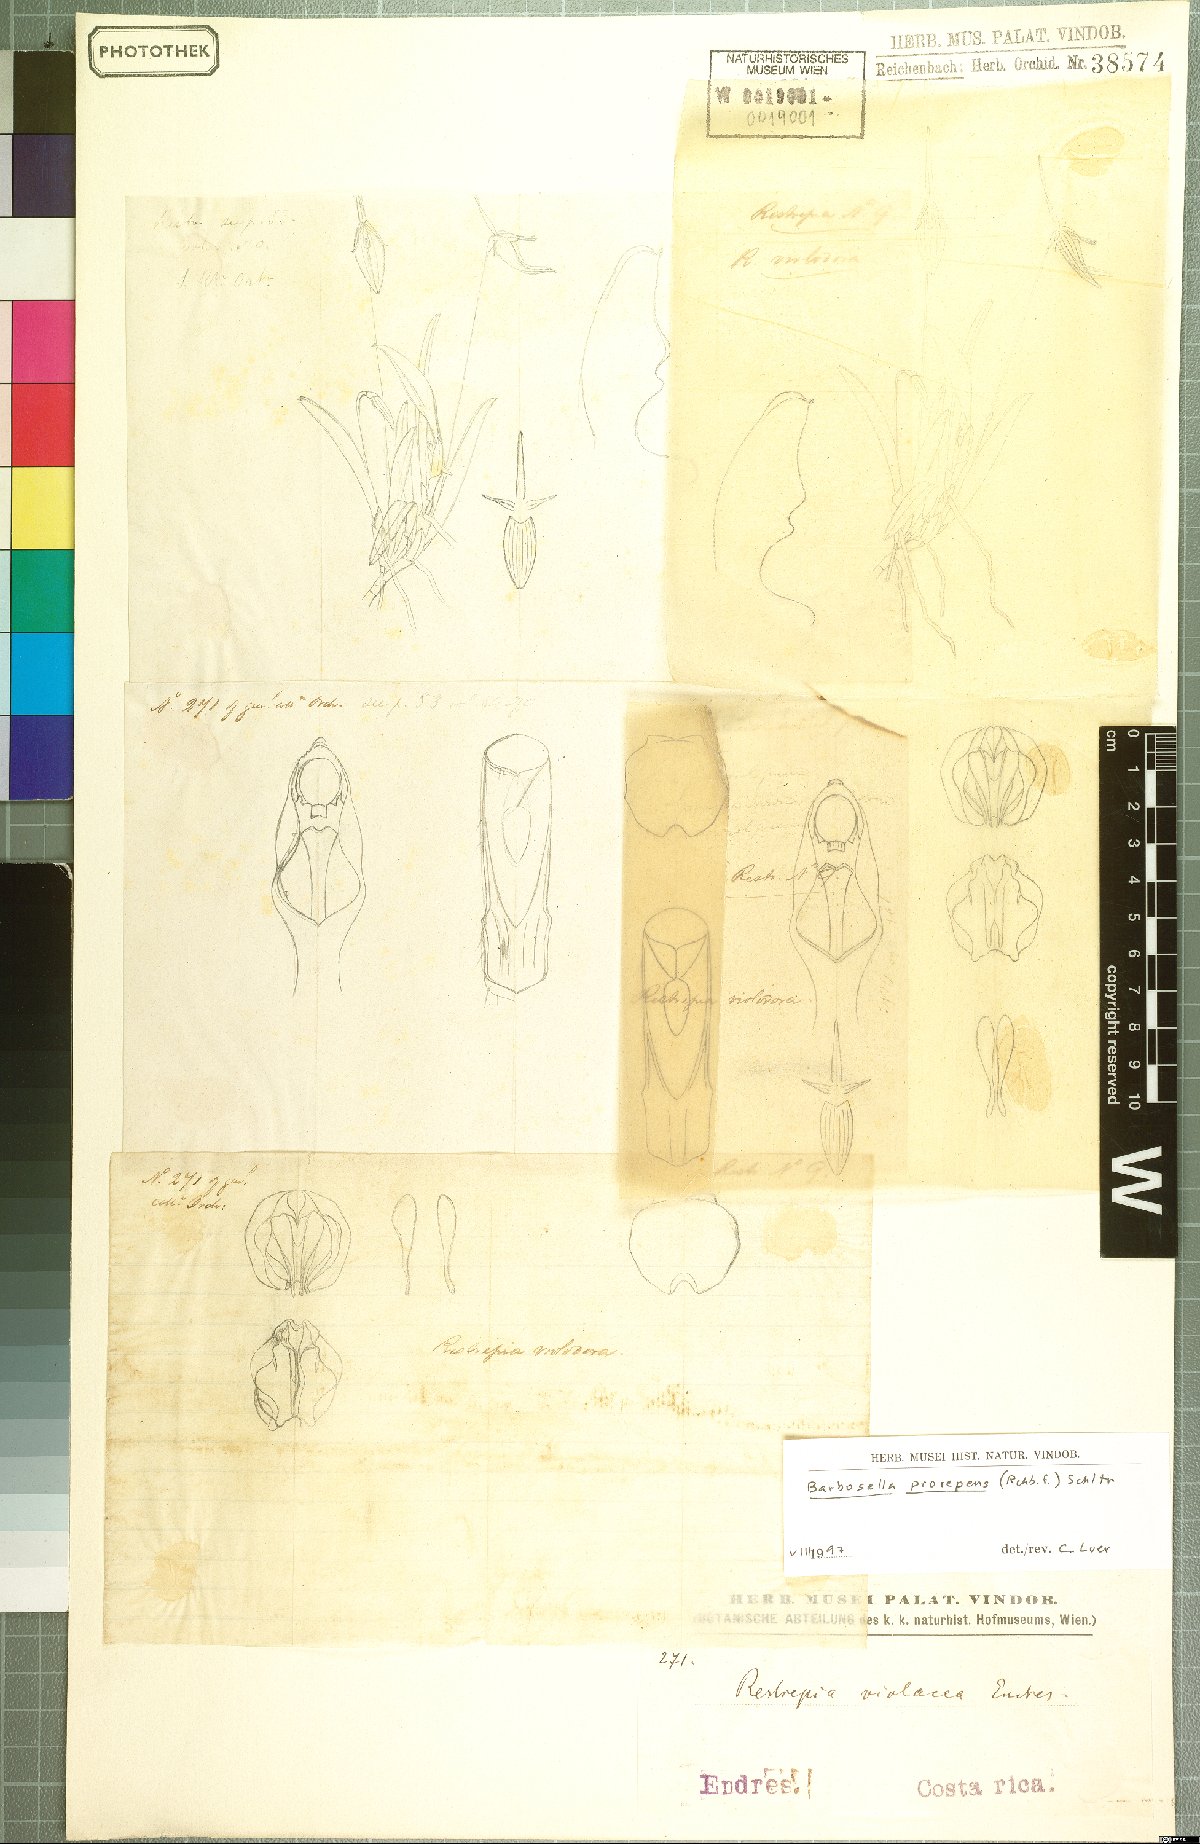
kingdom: Plantae
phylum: Tracheophyta
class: Liliopsida
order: Asparagales
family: Orchidaceae
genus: Barbosella
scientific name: Barbosella prorepens
